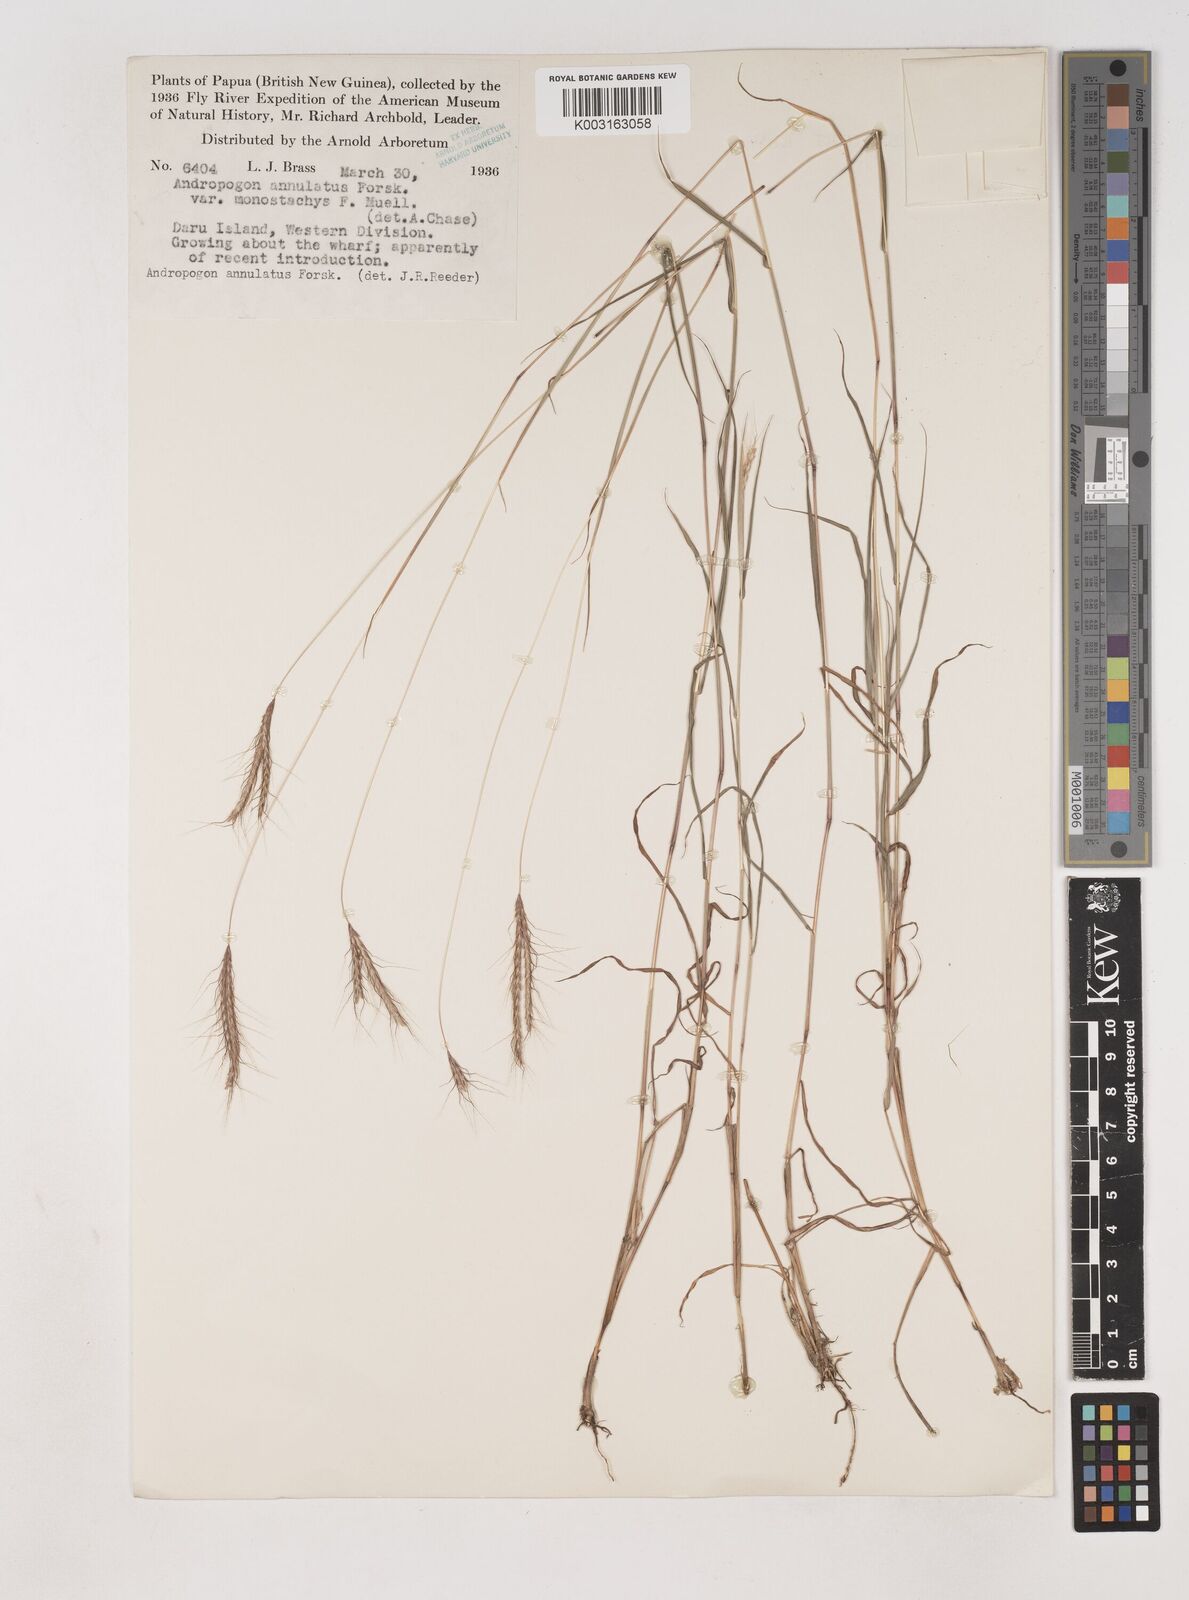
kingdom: Plantae
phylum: Tracheophyta
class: Liliopsida
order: Poales
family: Poaceae
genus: Dichanthium
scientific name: Dichanthium sericeum
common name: Silky bluestem
